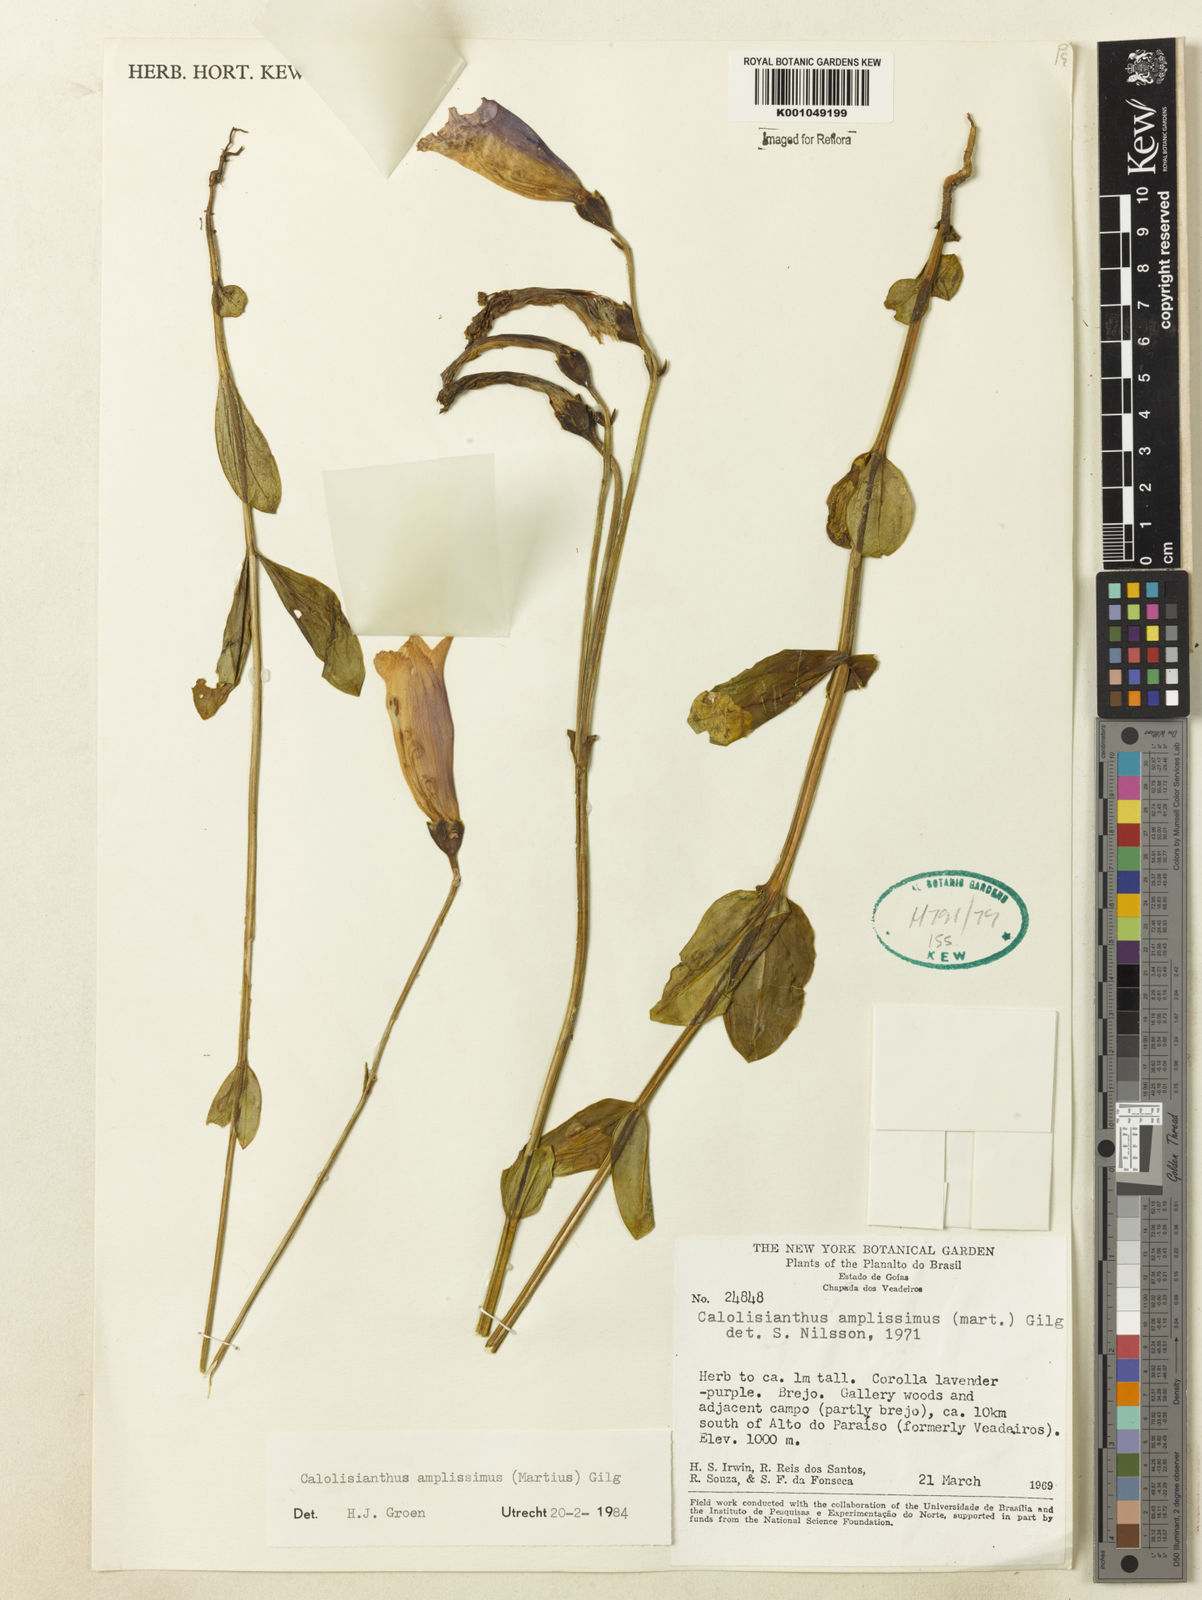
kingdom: Plantae
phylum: Tracheophyta
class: Magnoliopsida
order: Gentianales
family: Gentianaceae
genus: Calolisianthus
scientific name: Calolisianthus amplissimus
